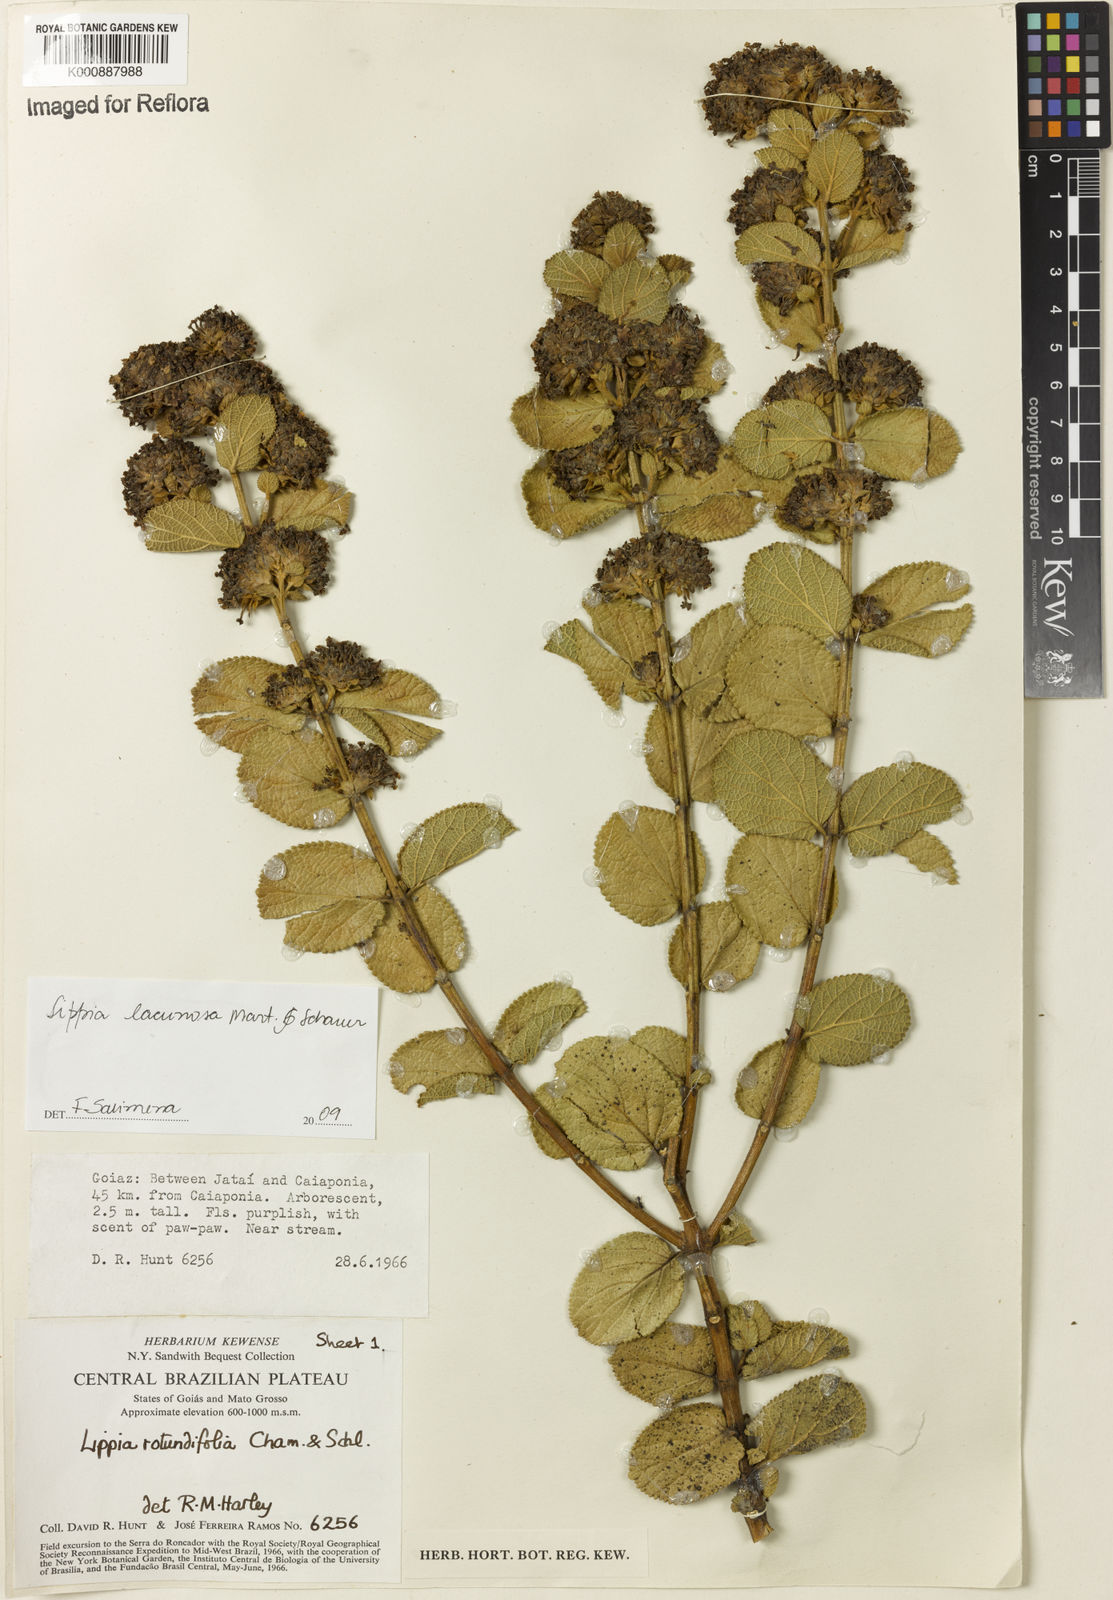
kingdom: Plantae
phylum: Tracheophyta
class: Magnoliopsida
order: Lamiales
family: Verbenaceae
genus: Lippia
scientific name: Lippia lacunosa
